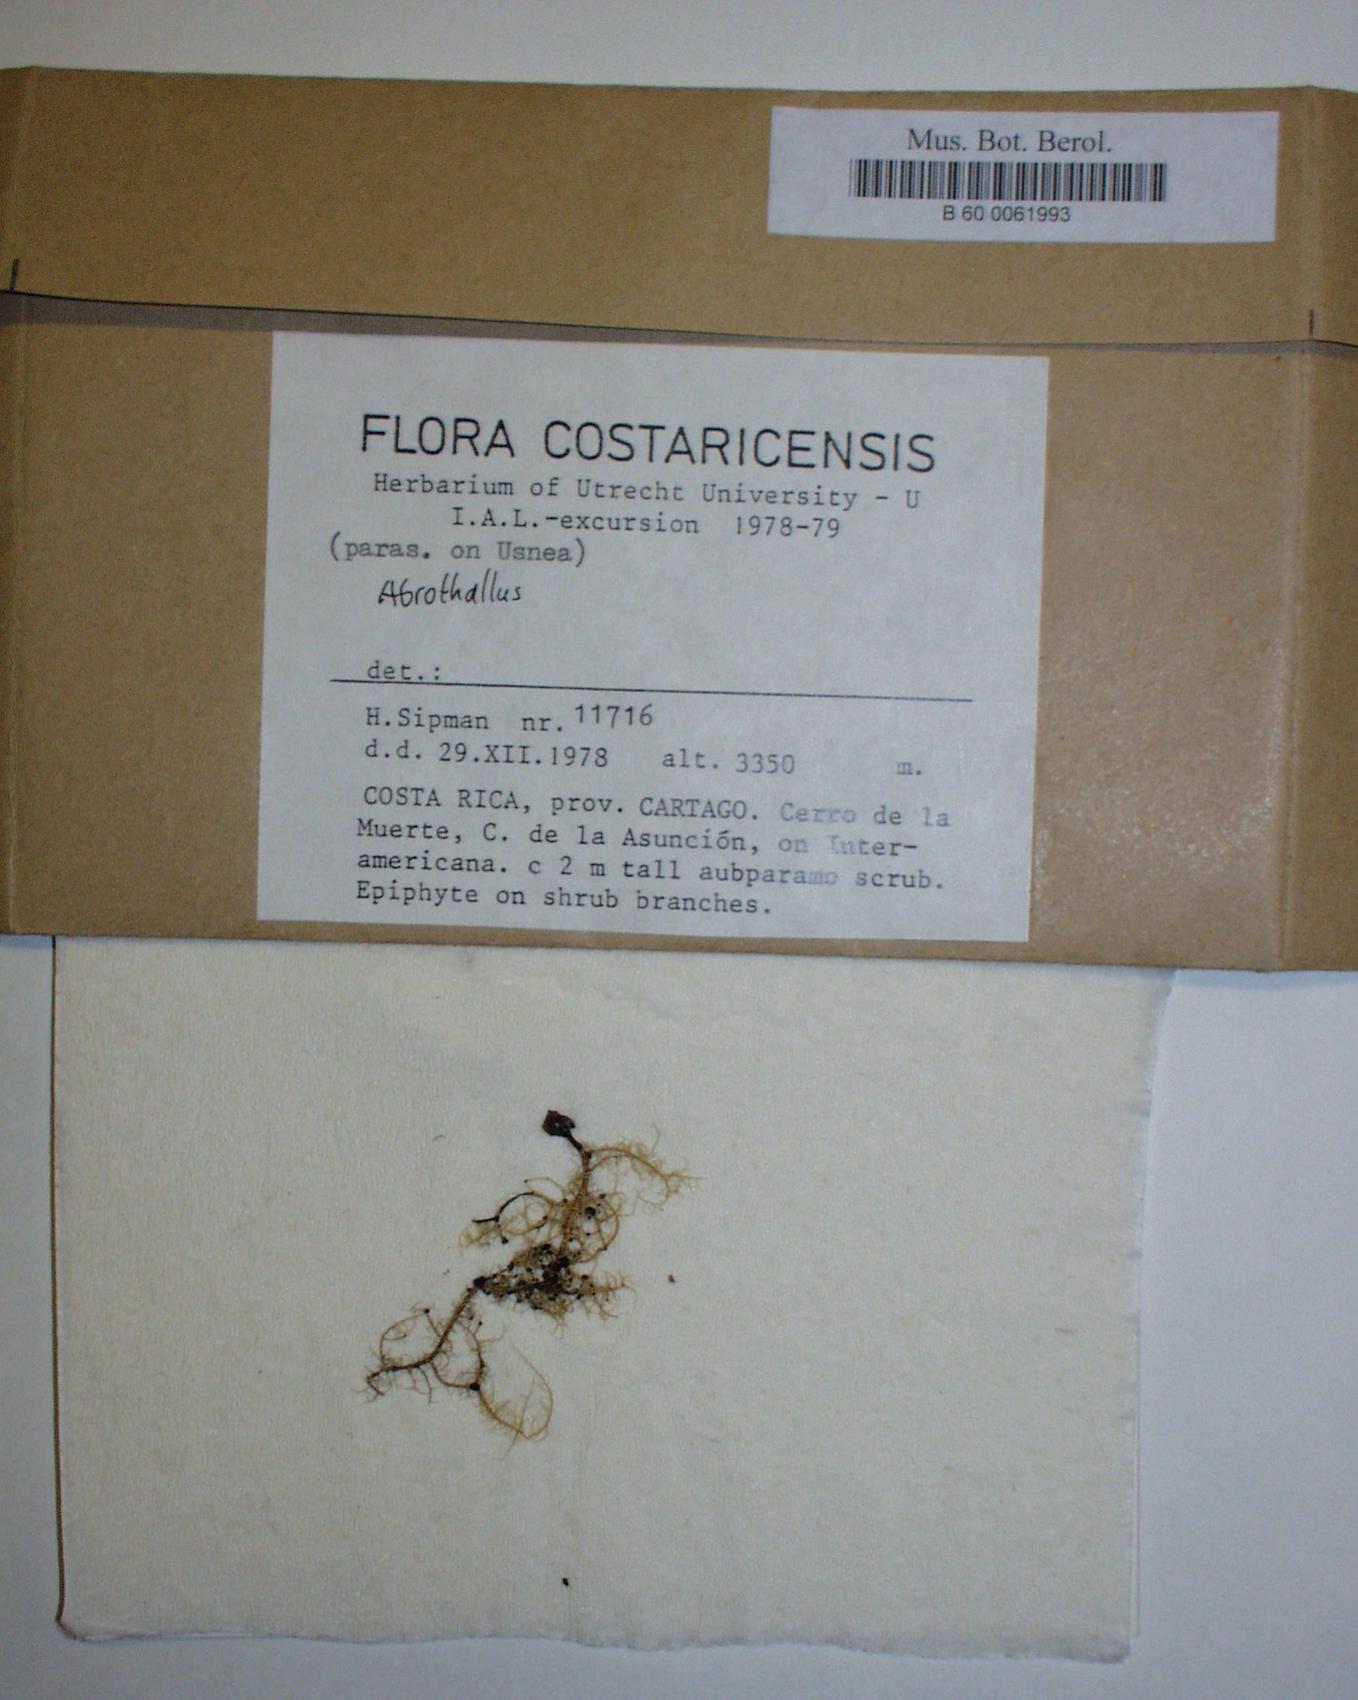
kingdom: Fungi
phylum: Ascomycota
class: Dothideomycetes
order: Pleosporales
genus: Abrothallus
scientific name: Abrothallus
